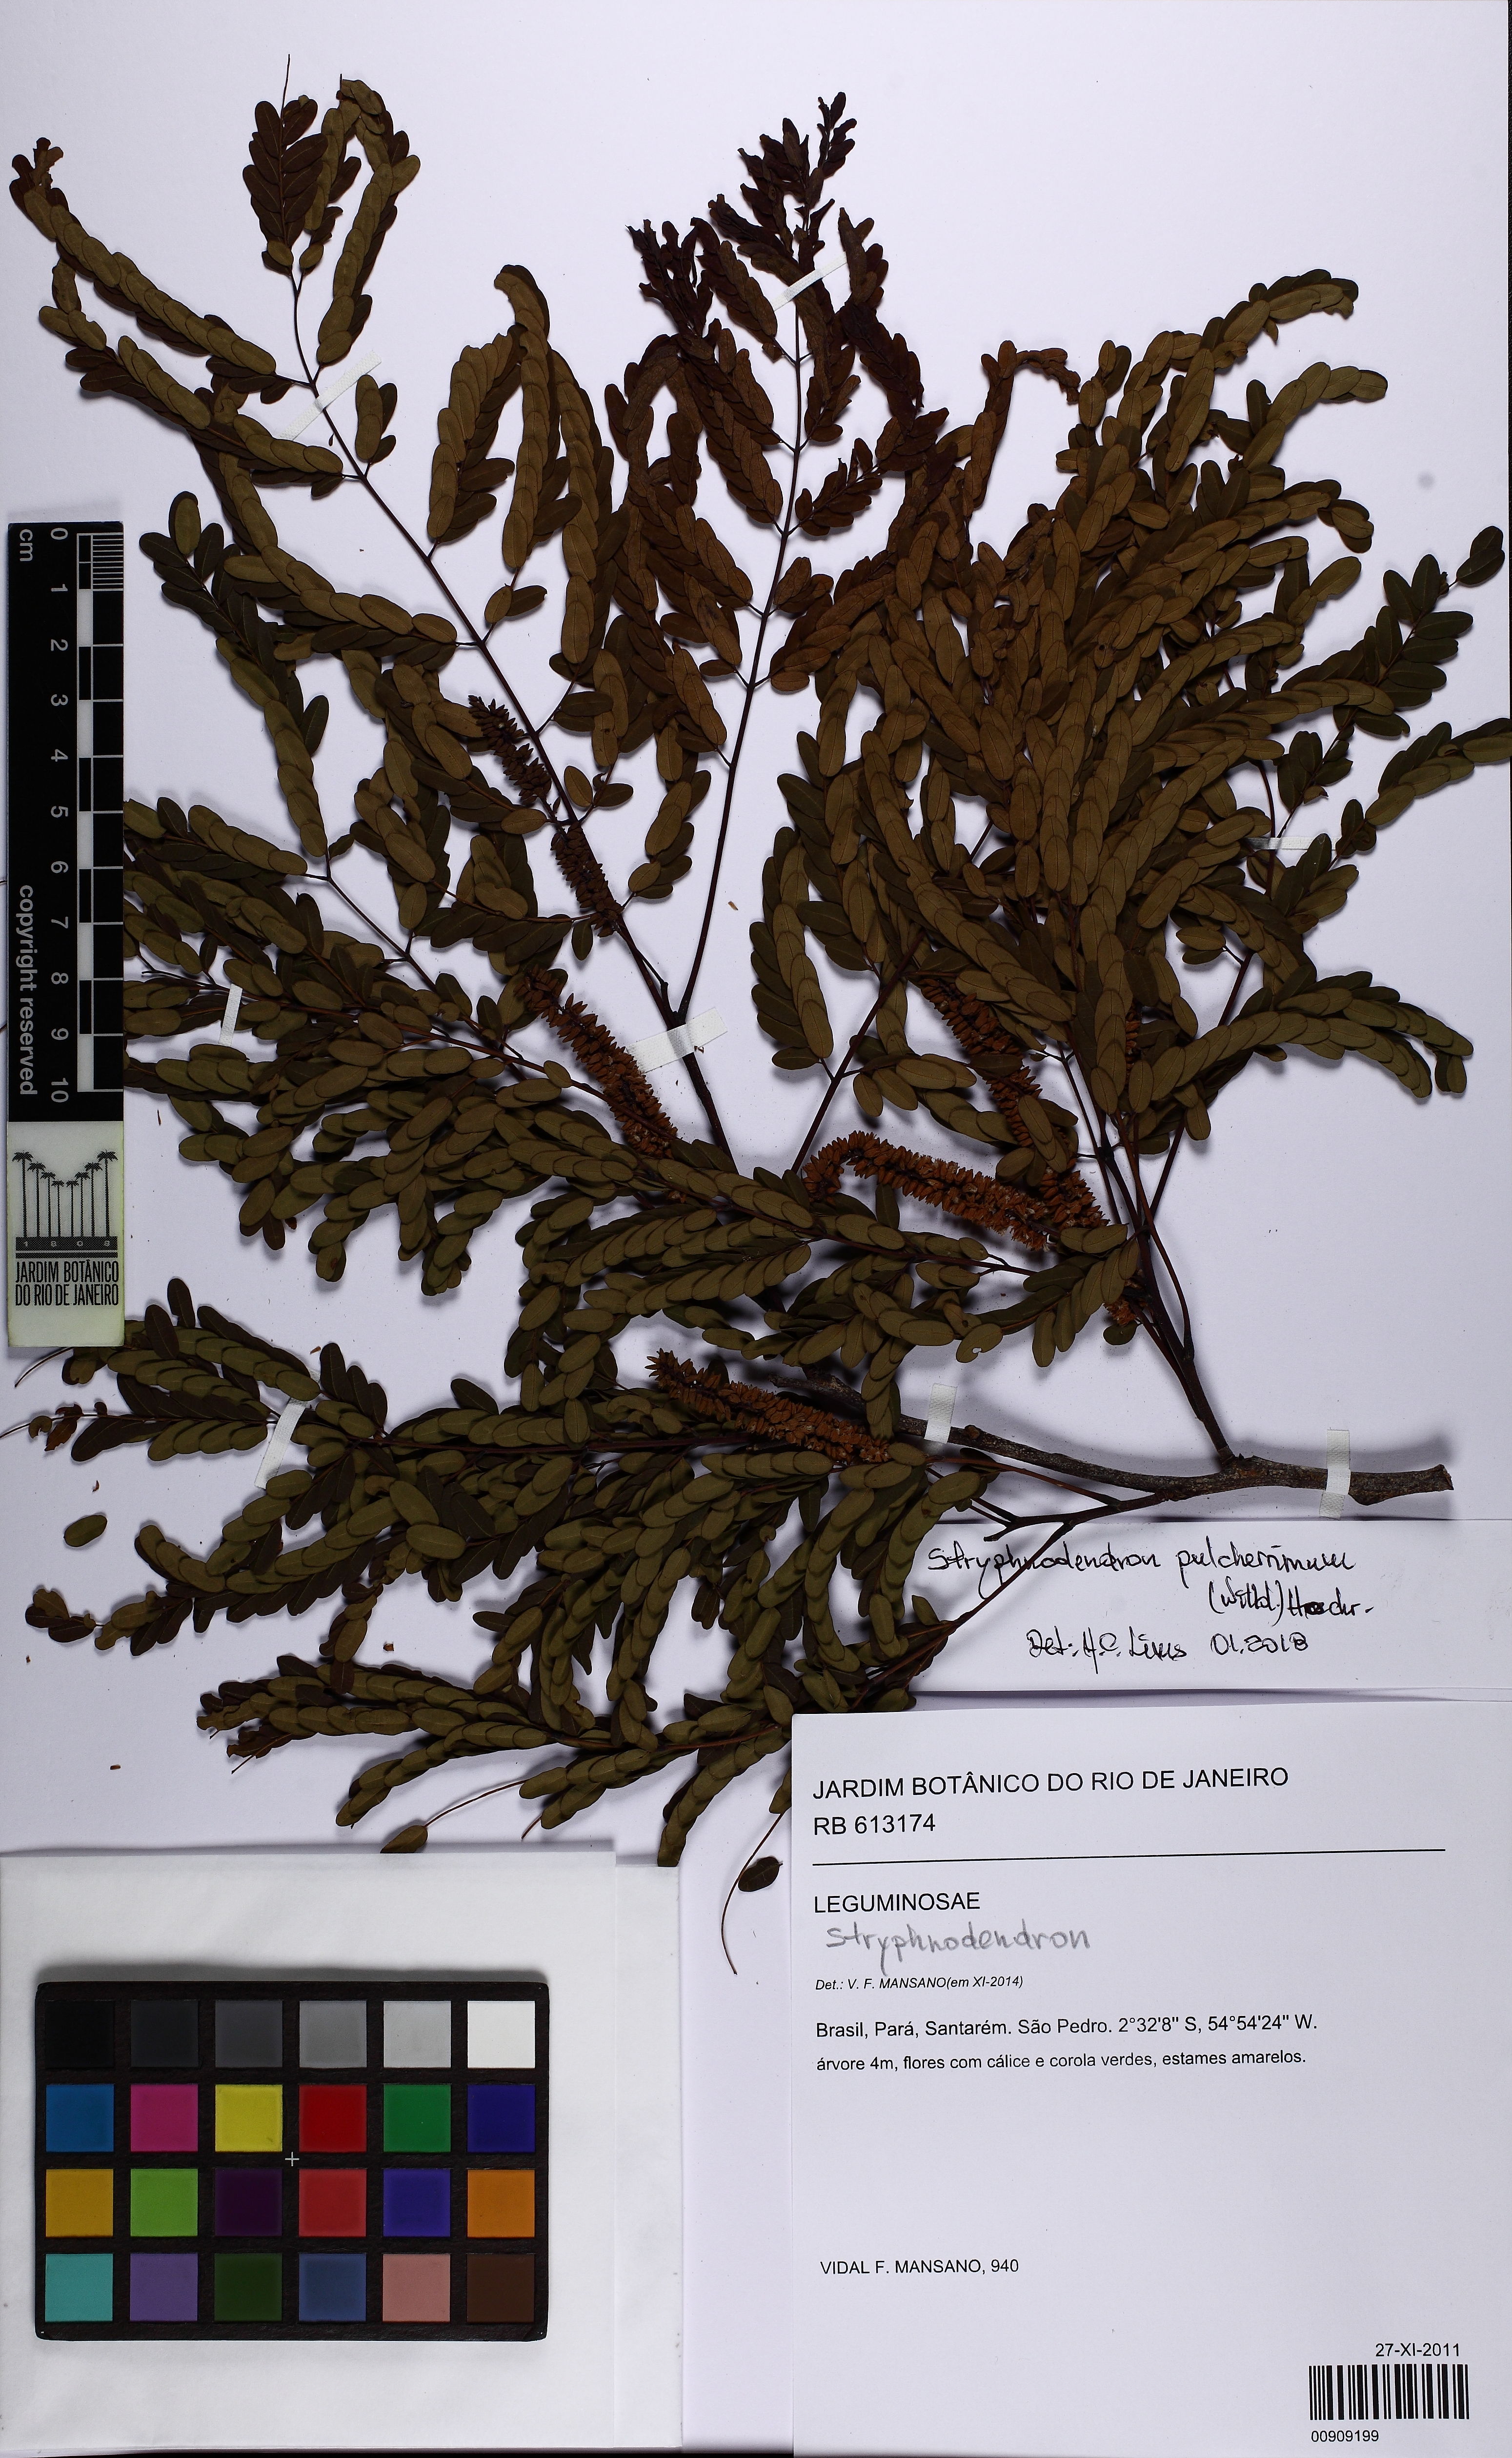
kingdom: Plantae
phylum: Tracheophyta
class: Magnoliopsida
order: Fabales
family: Fabaceae
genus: Stryphnodendron
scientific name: Stryphnodendron pulcherrimum
